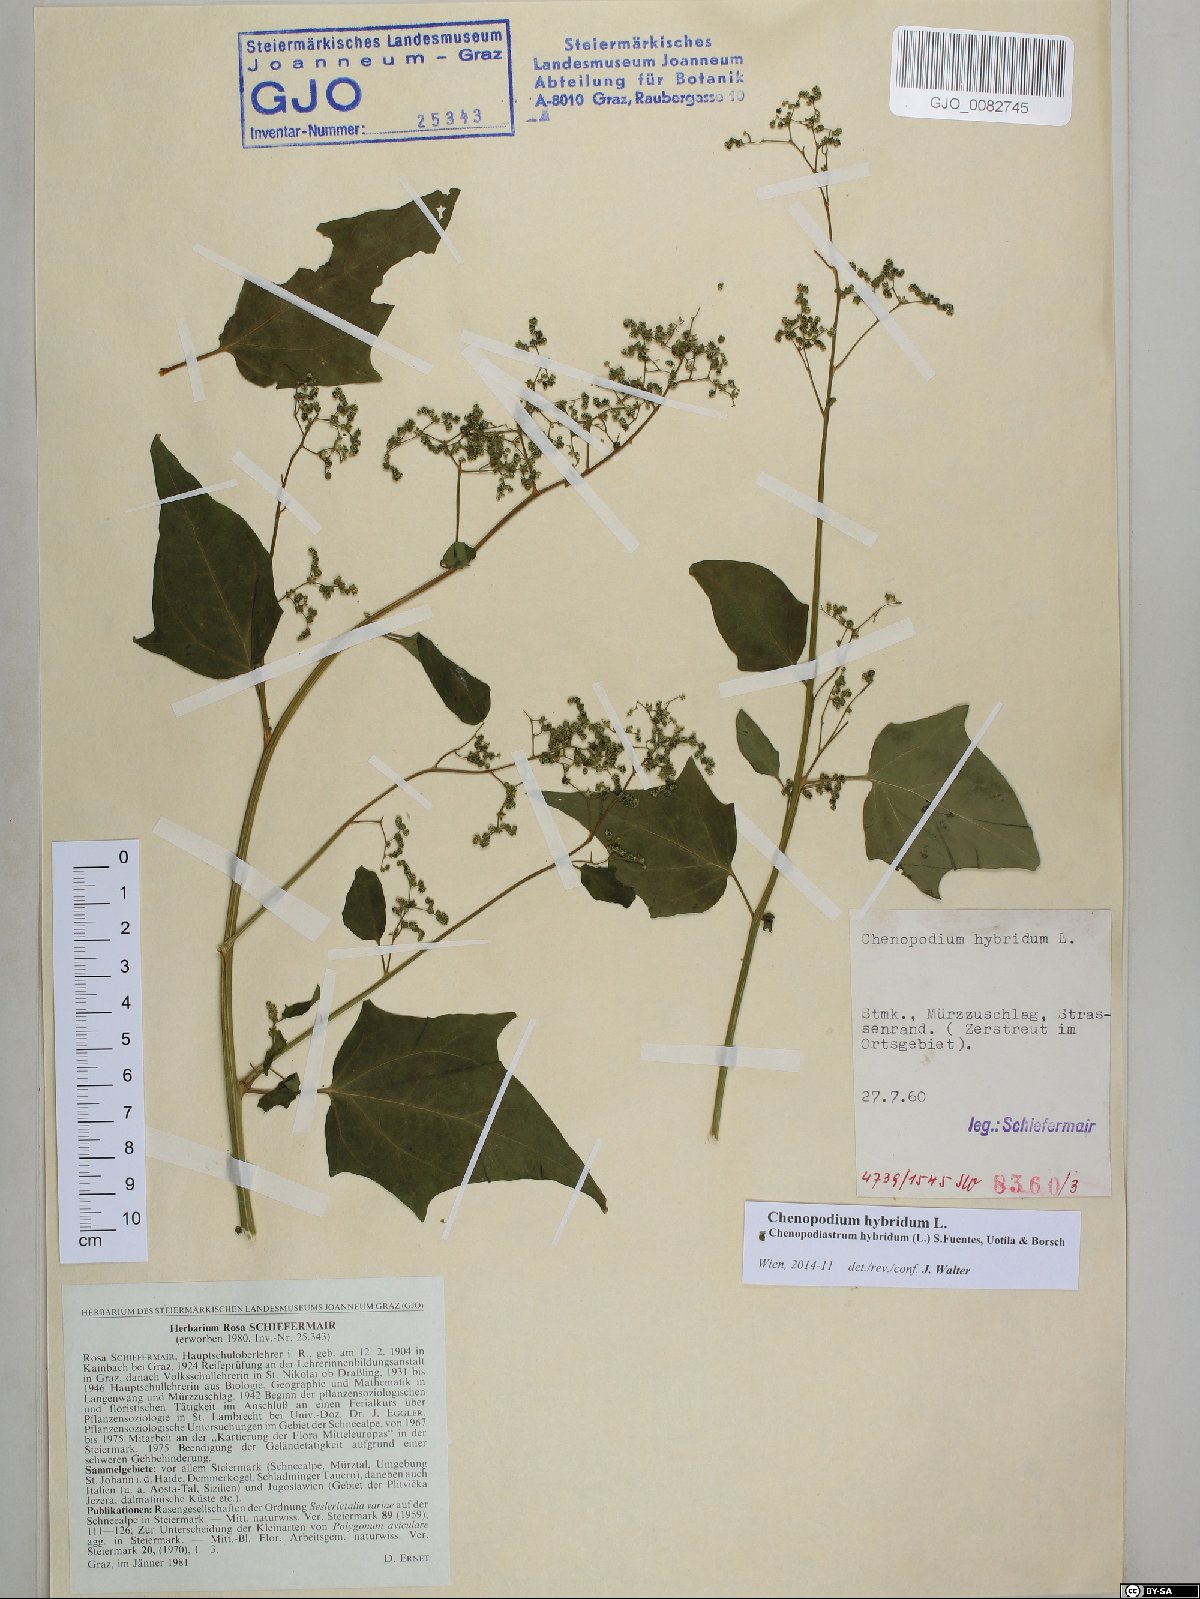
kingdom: Plantae
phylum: Tracheophyta
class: Magnoliopsida
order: Caryophyllales
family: Amaranthaceae
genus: Chenopodiastrum
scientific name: Chenopodiastrum hybridum
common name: Mapleleaf goosefoot
